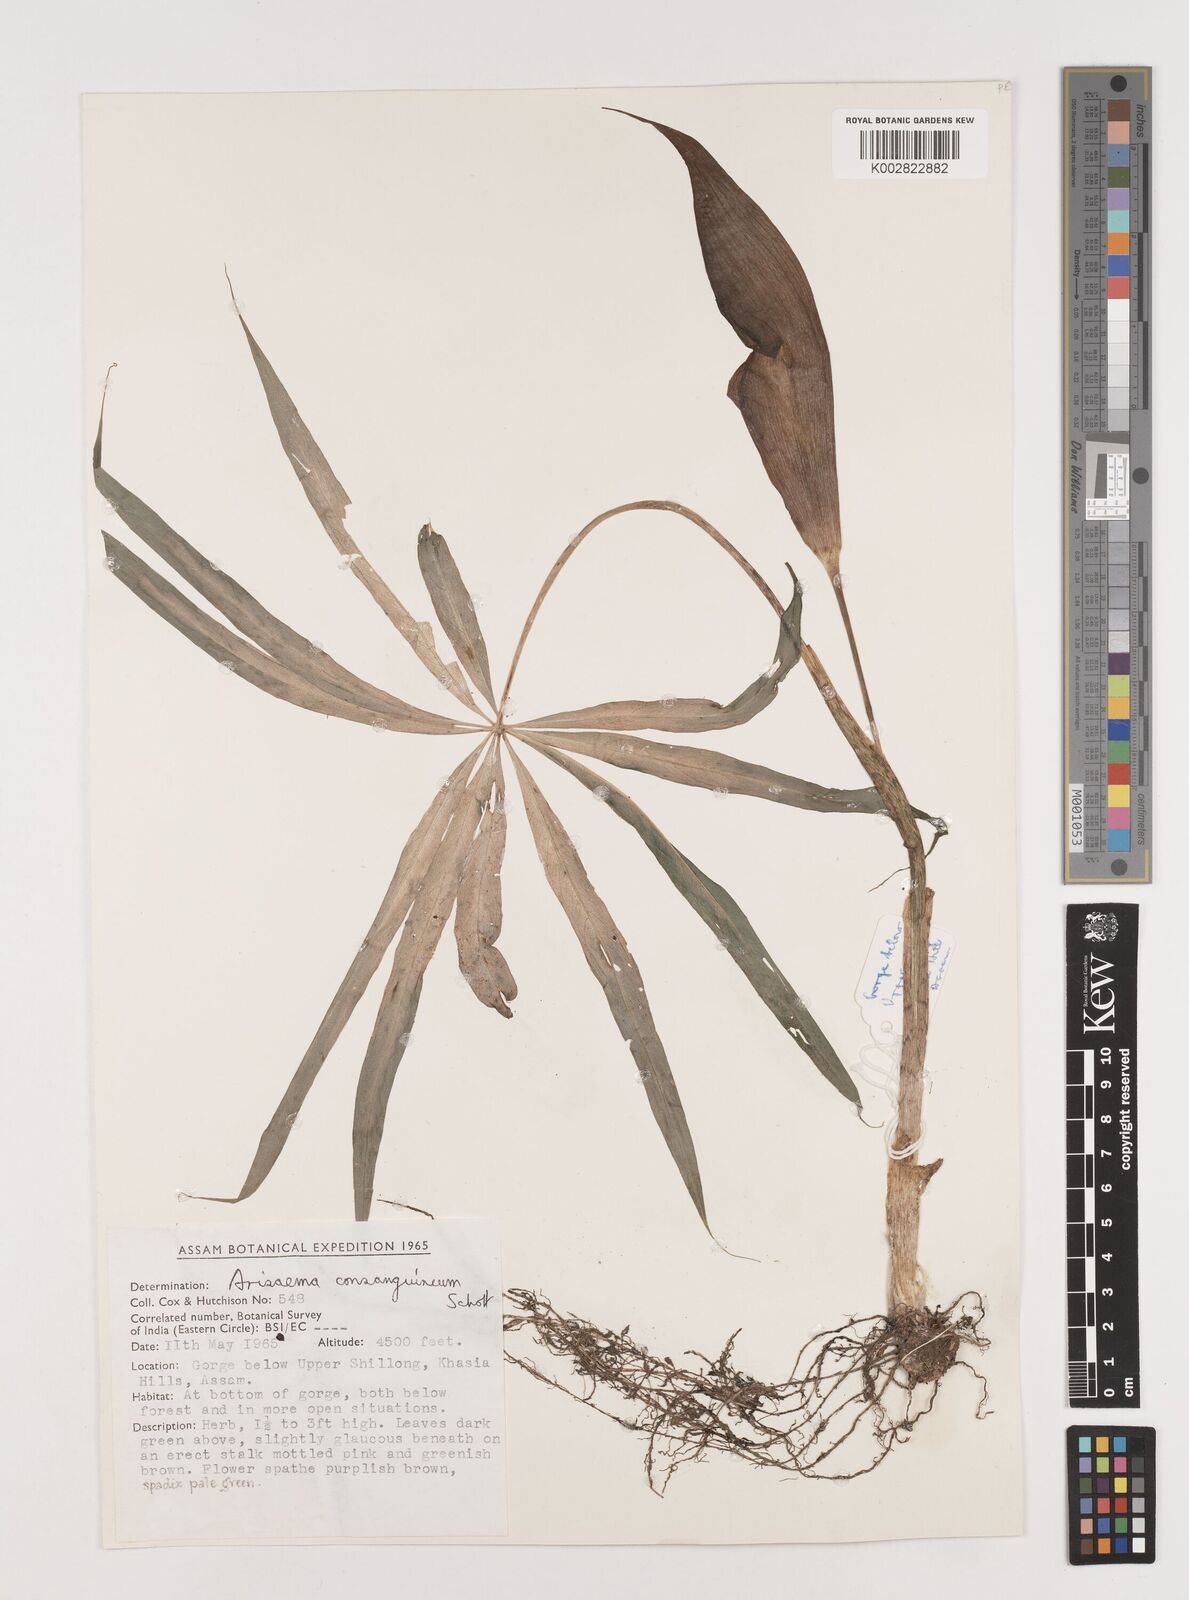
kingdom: Plantae
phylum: Tracheophyta
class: Liliopsida
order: Alismatales
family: Araceae
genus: Arisaema
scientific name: Arisaema erubescens
